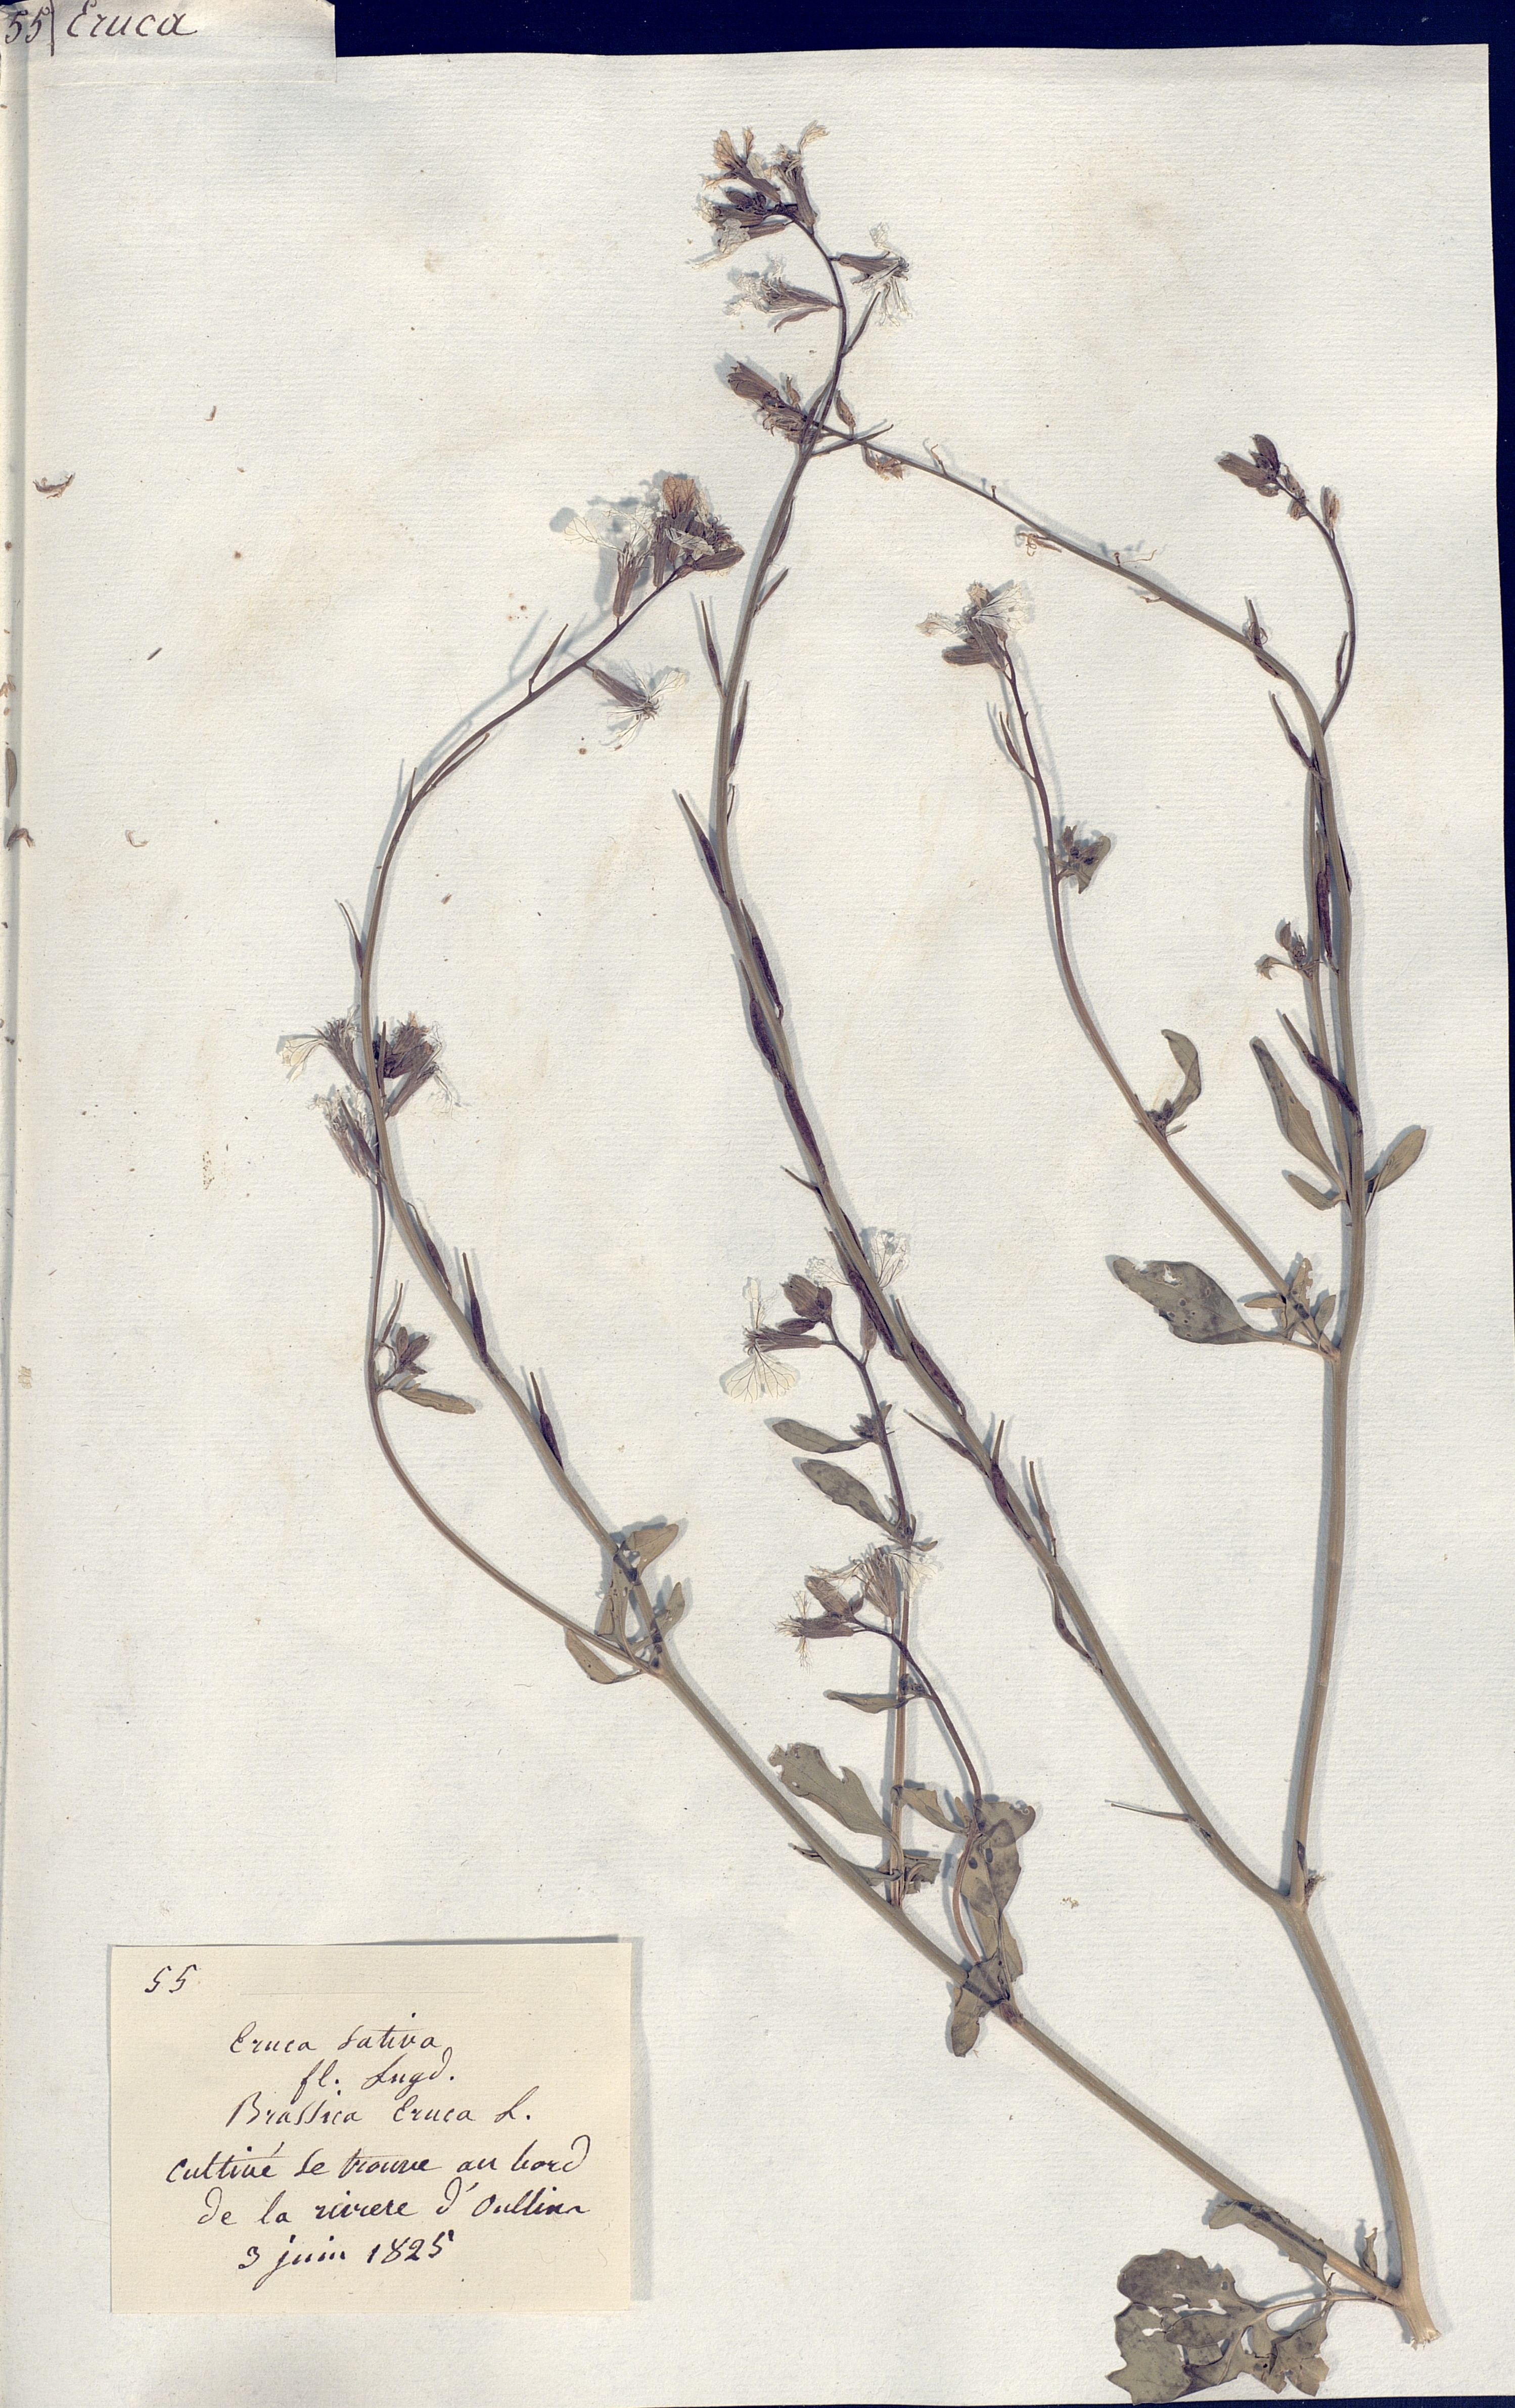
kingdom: Plantae
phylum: Tracheophyta
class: Magnoliopsida
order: Brassicales
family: Brassicaceae
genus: Eruca
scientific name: Eruca sativa
